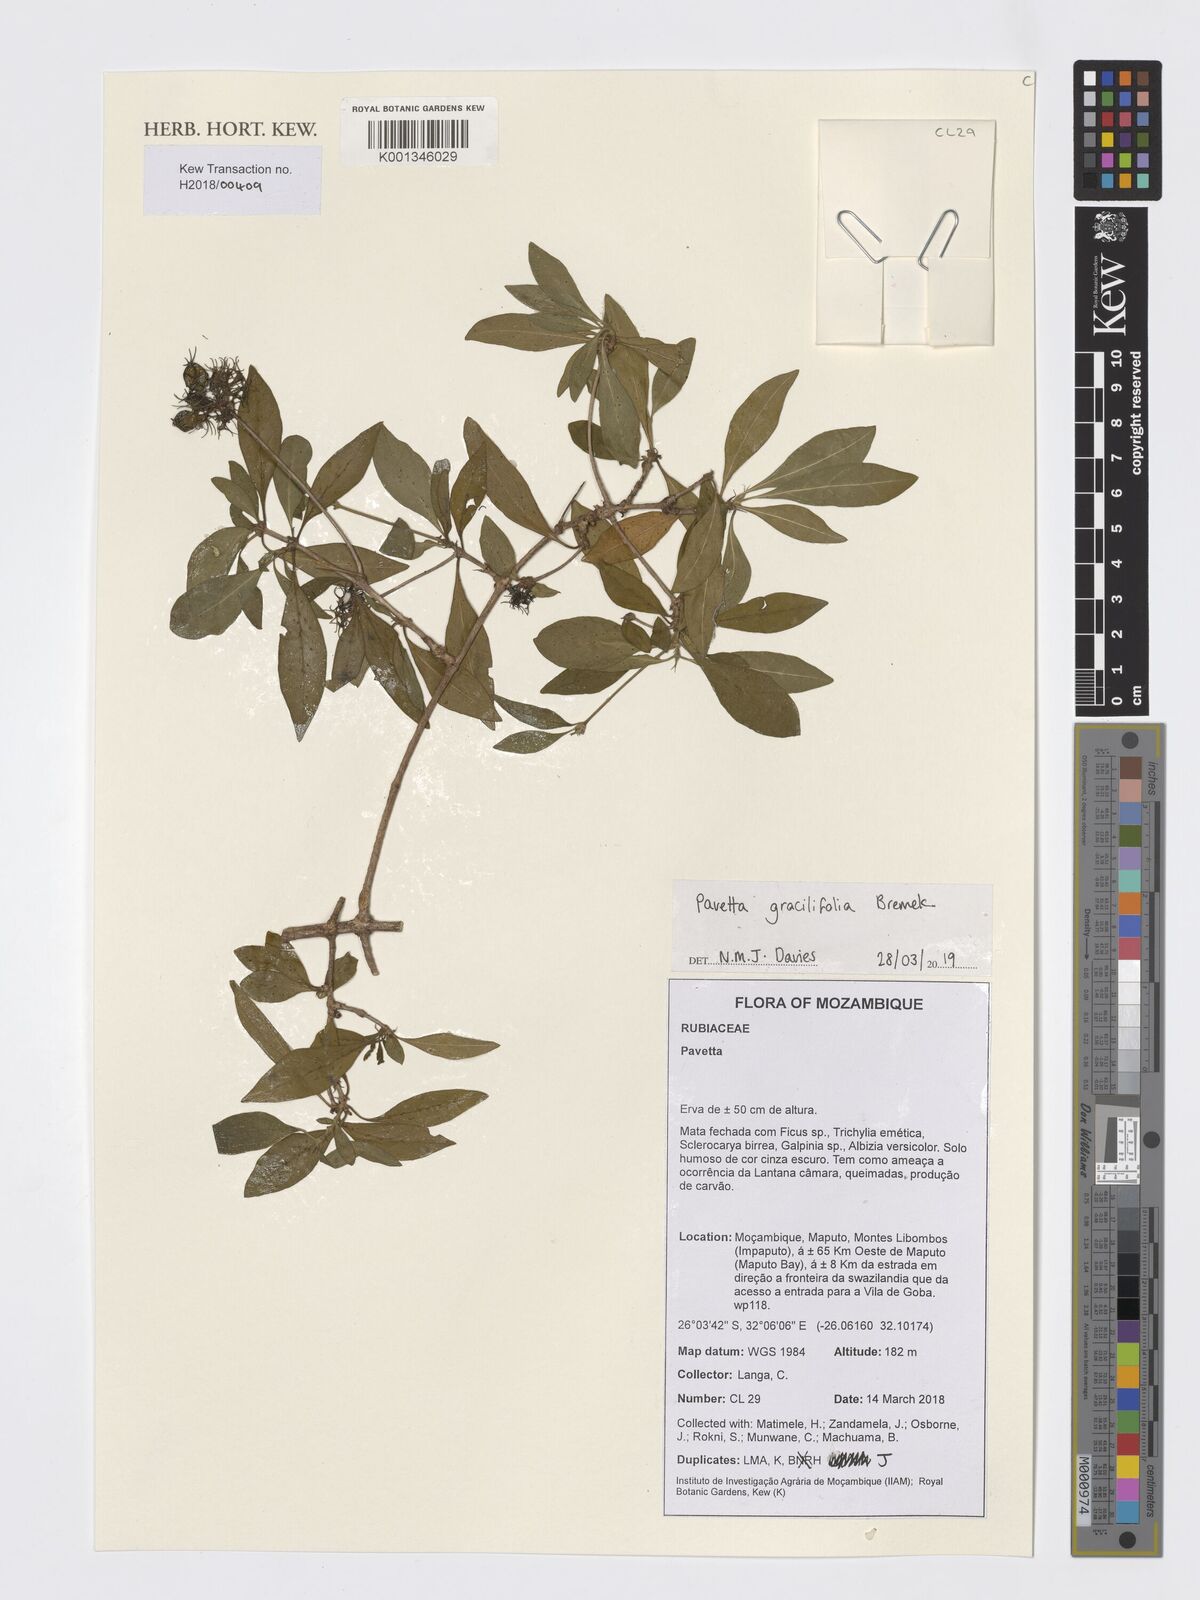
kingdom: Plantae
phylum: Tracheophyta
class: Magnoliopsida
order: Gentianales
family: Rubiaceae
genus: Pavetta
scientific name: Pavetta gracilifolia
